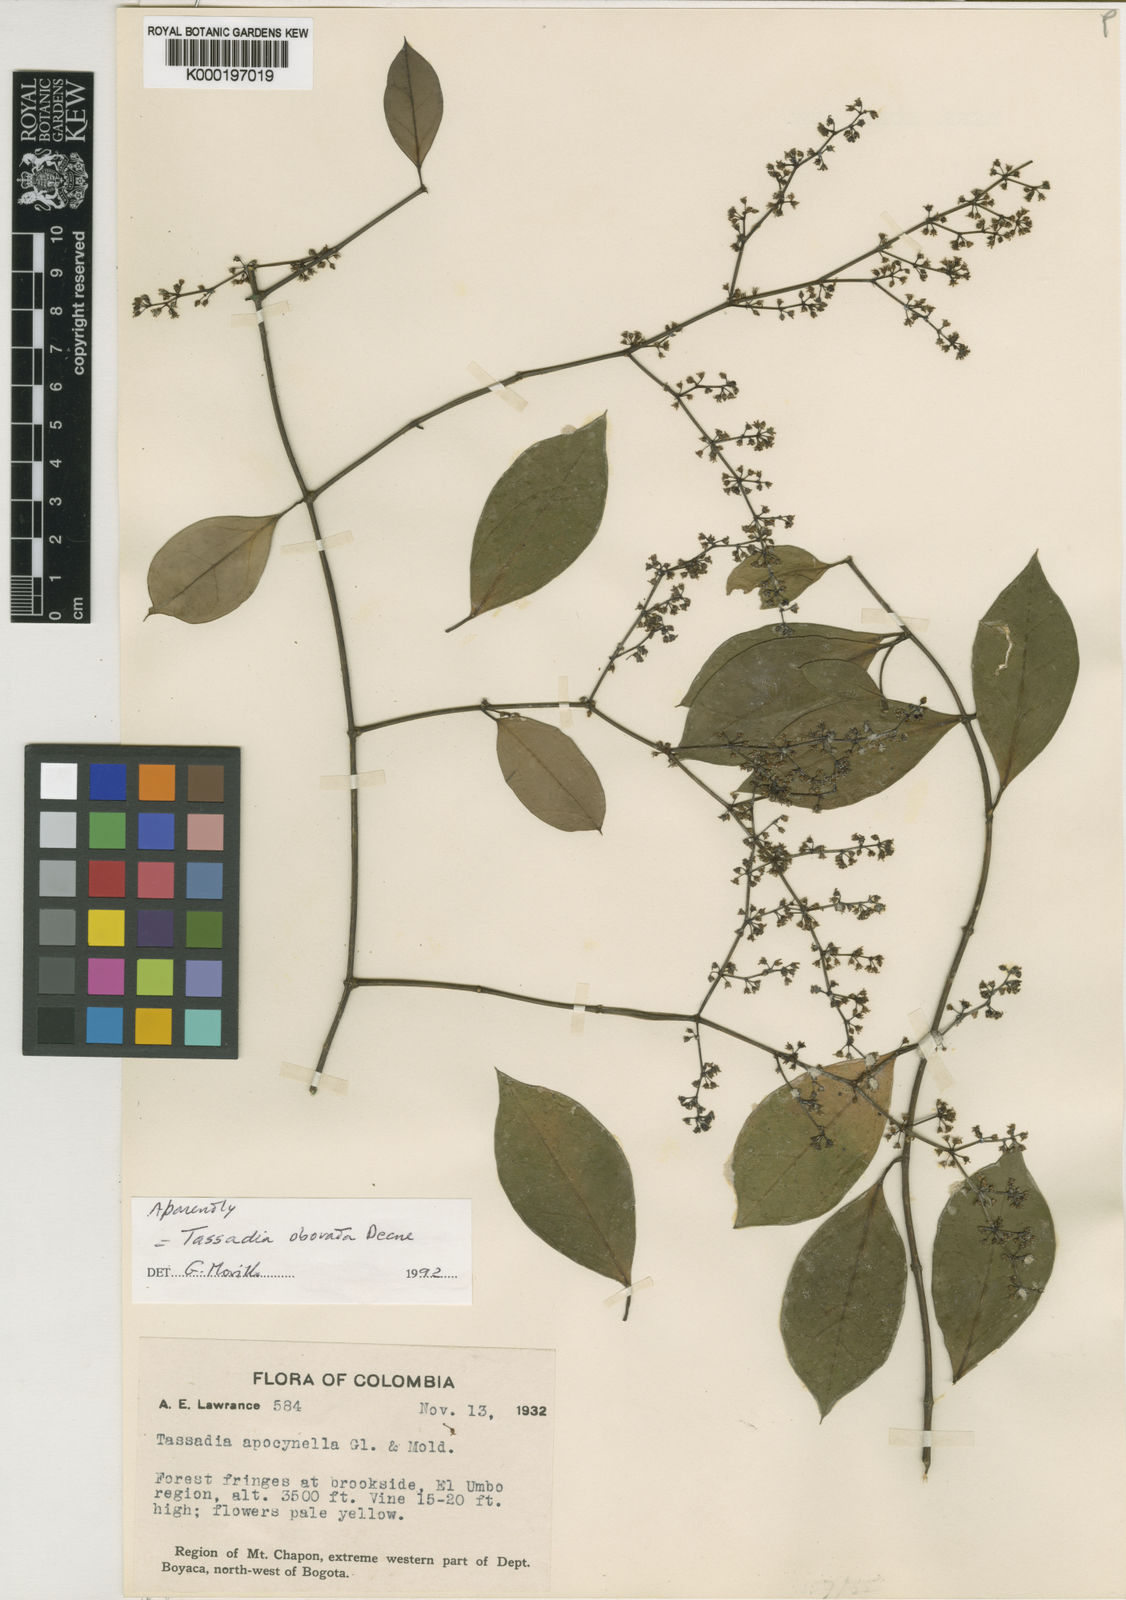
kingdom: Plantae
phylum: Tracheophyta
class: Magnoliopsida
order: Gentianales
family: Apocynaceae
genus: Tassadia
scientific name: Tassadia obovata
